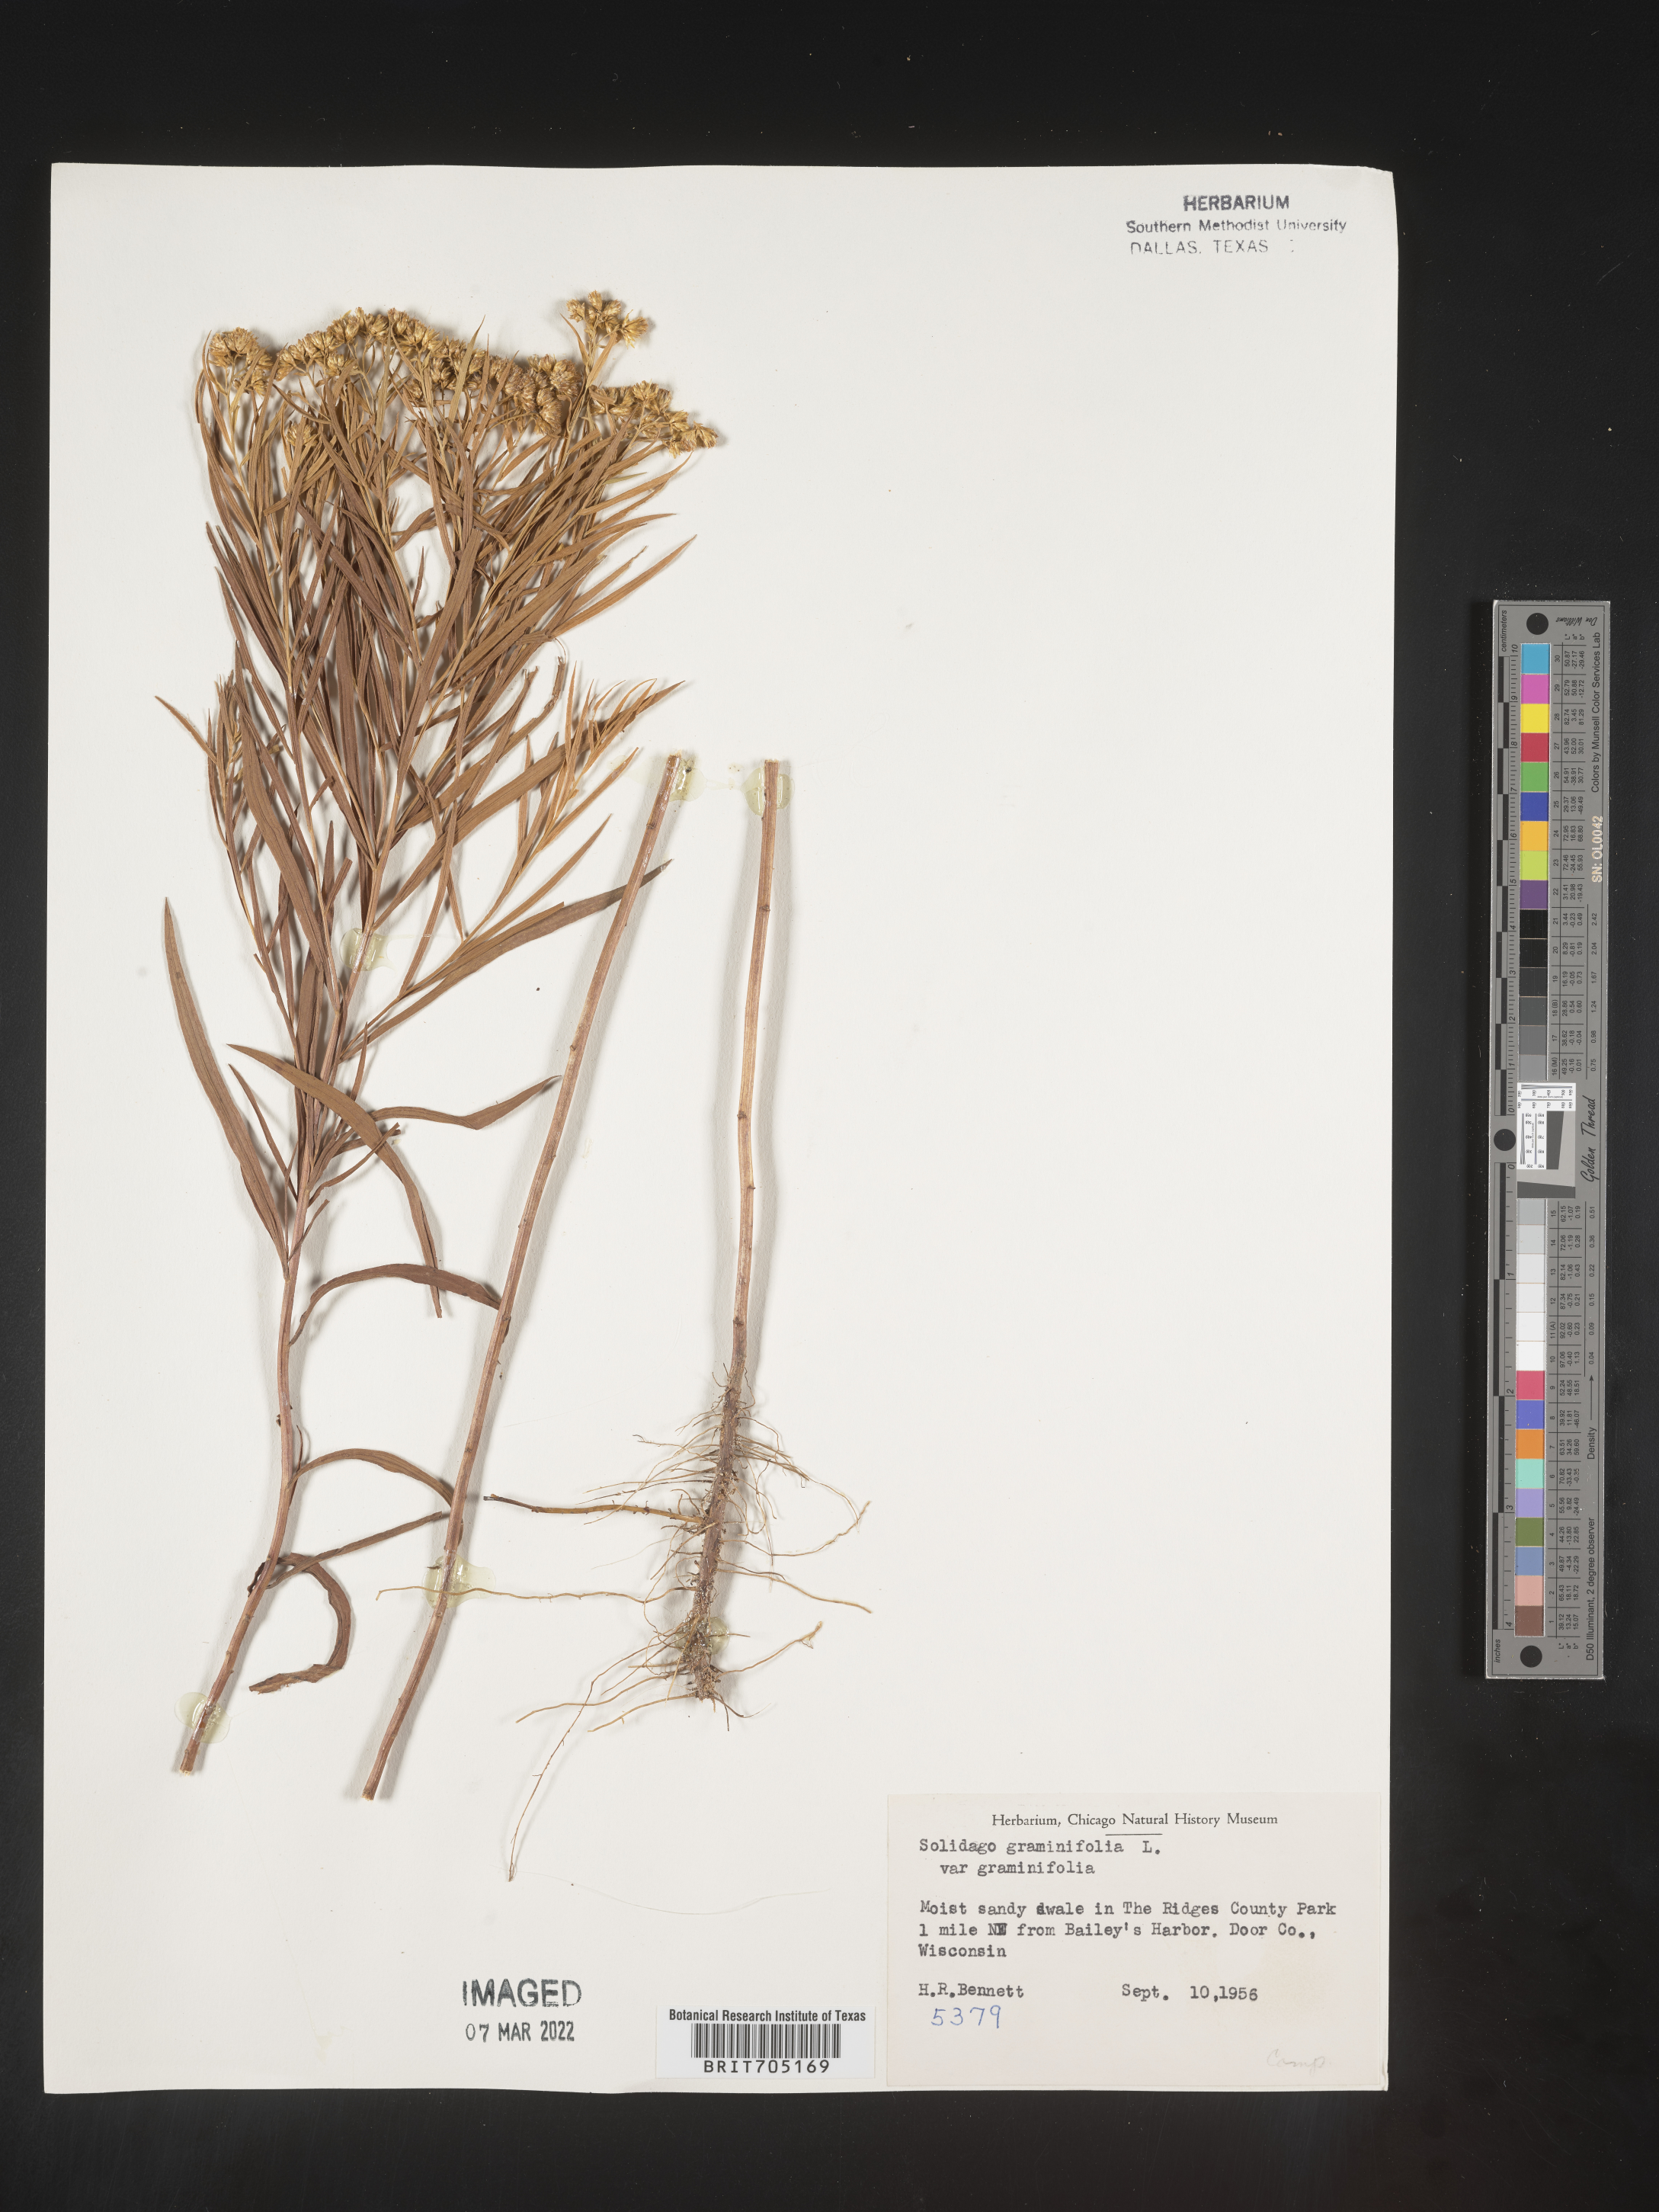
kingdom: Plantae
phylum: Tracheophyta
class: Magnoliopsida
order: Asterales
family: Asteraceae
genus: Euthamia
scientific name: Euthamia graminifolia
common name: Common goldentop
